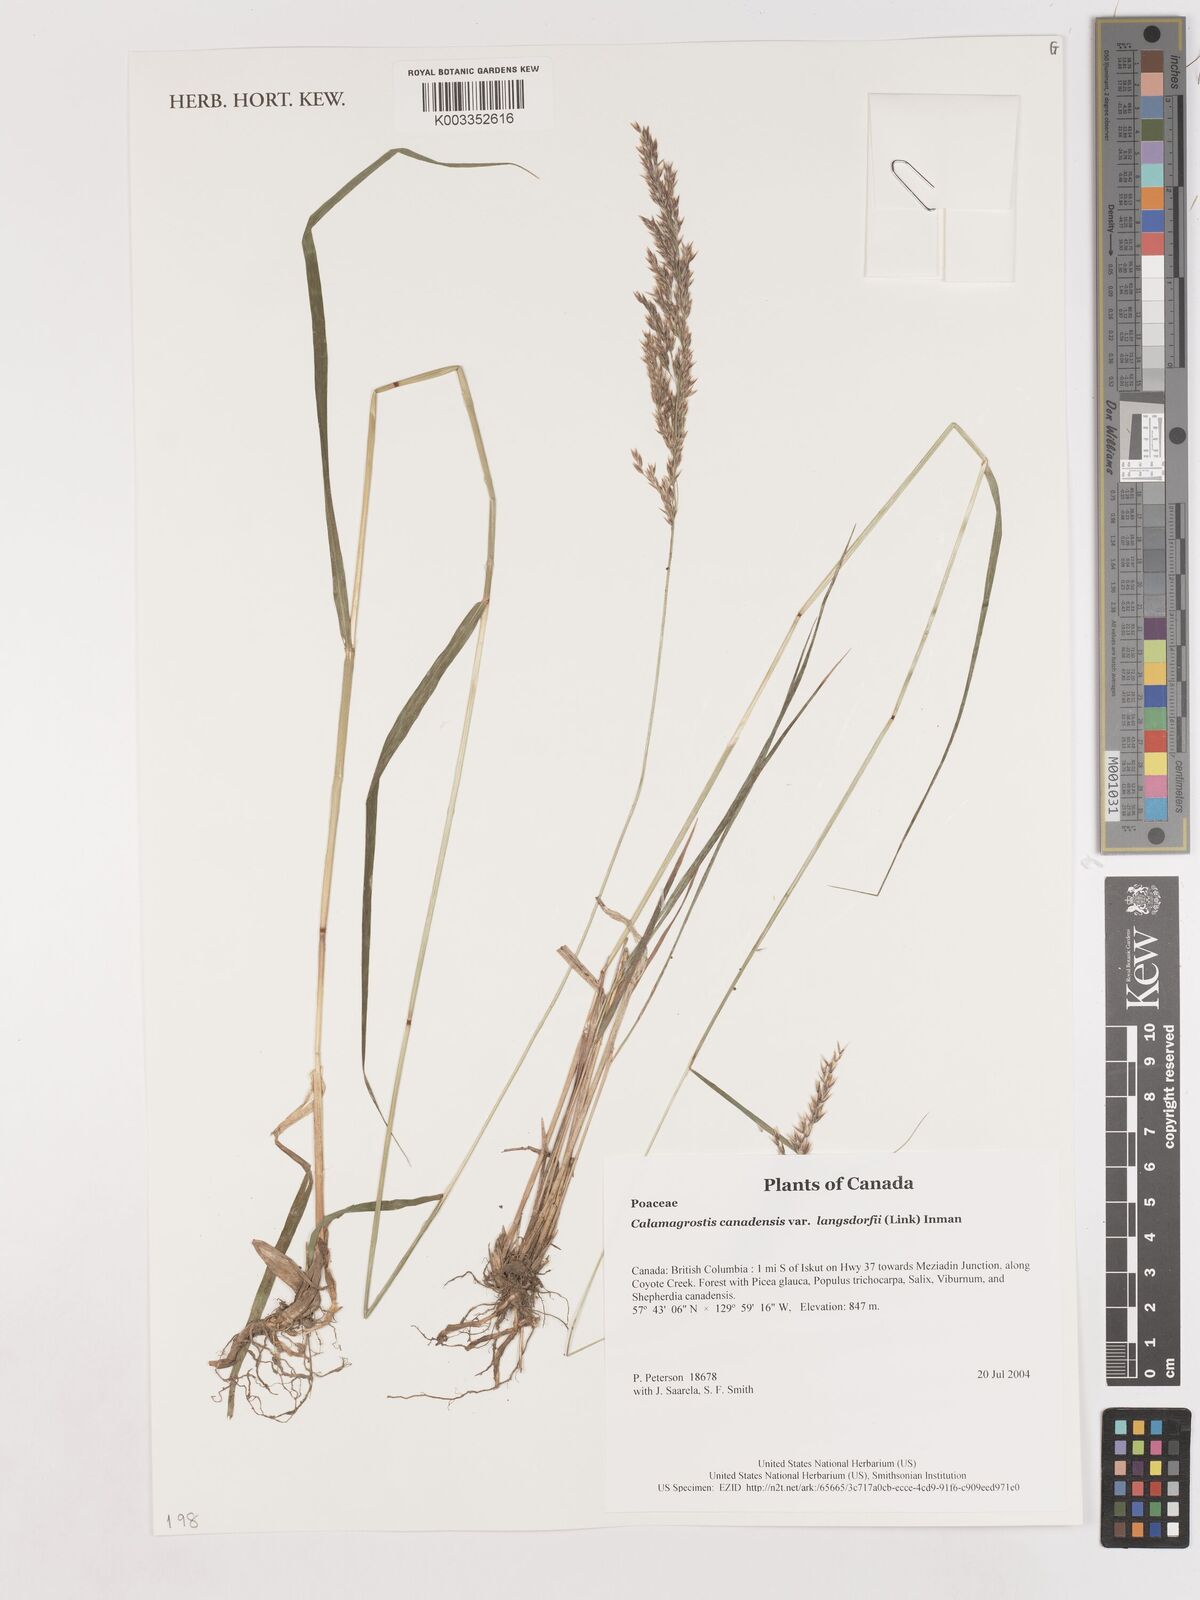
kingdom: Plantae
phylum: Tracheophyta
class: Liliopsida
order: Poales
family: Poaceae
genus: Calamagrostis
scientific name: Calamagrostis canadensis
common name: Canada bluejoint
